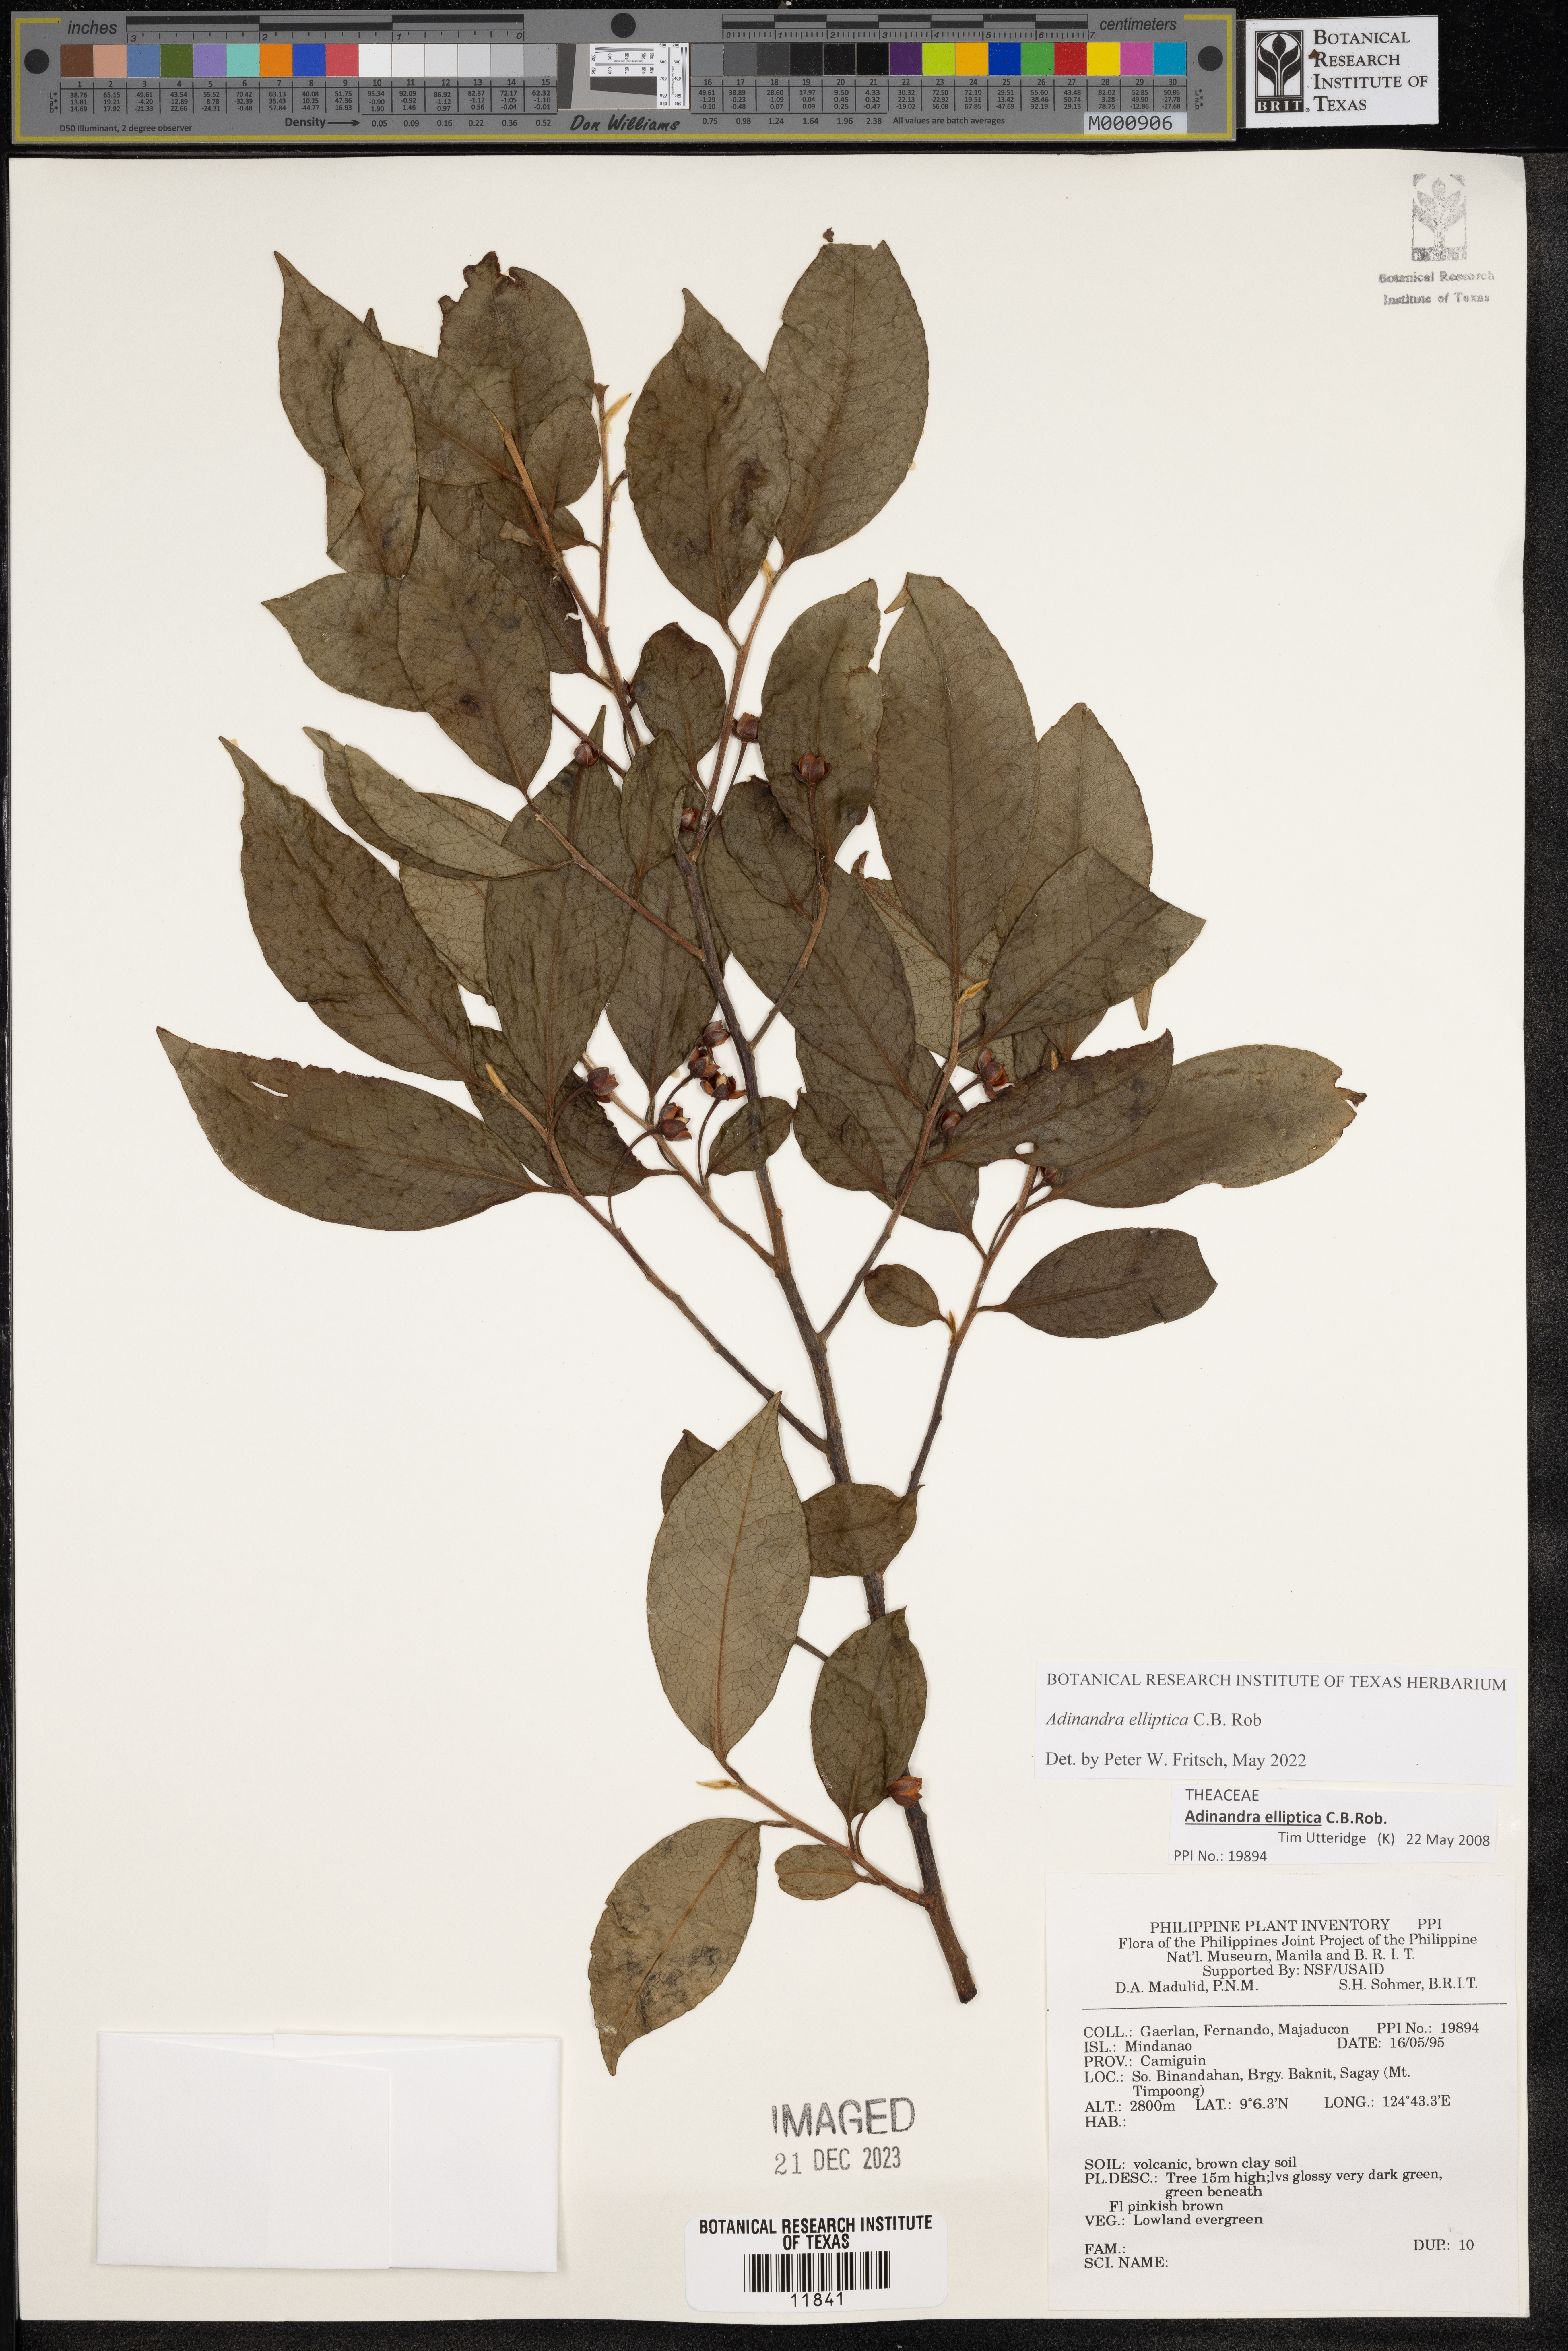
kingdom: Plantae
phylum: Tracheophyta
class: Magnoliopsida
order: Ericales
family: Pentaphylacaceae
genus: Adinandra
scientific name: Adinandra
